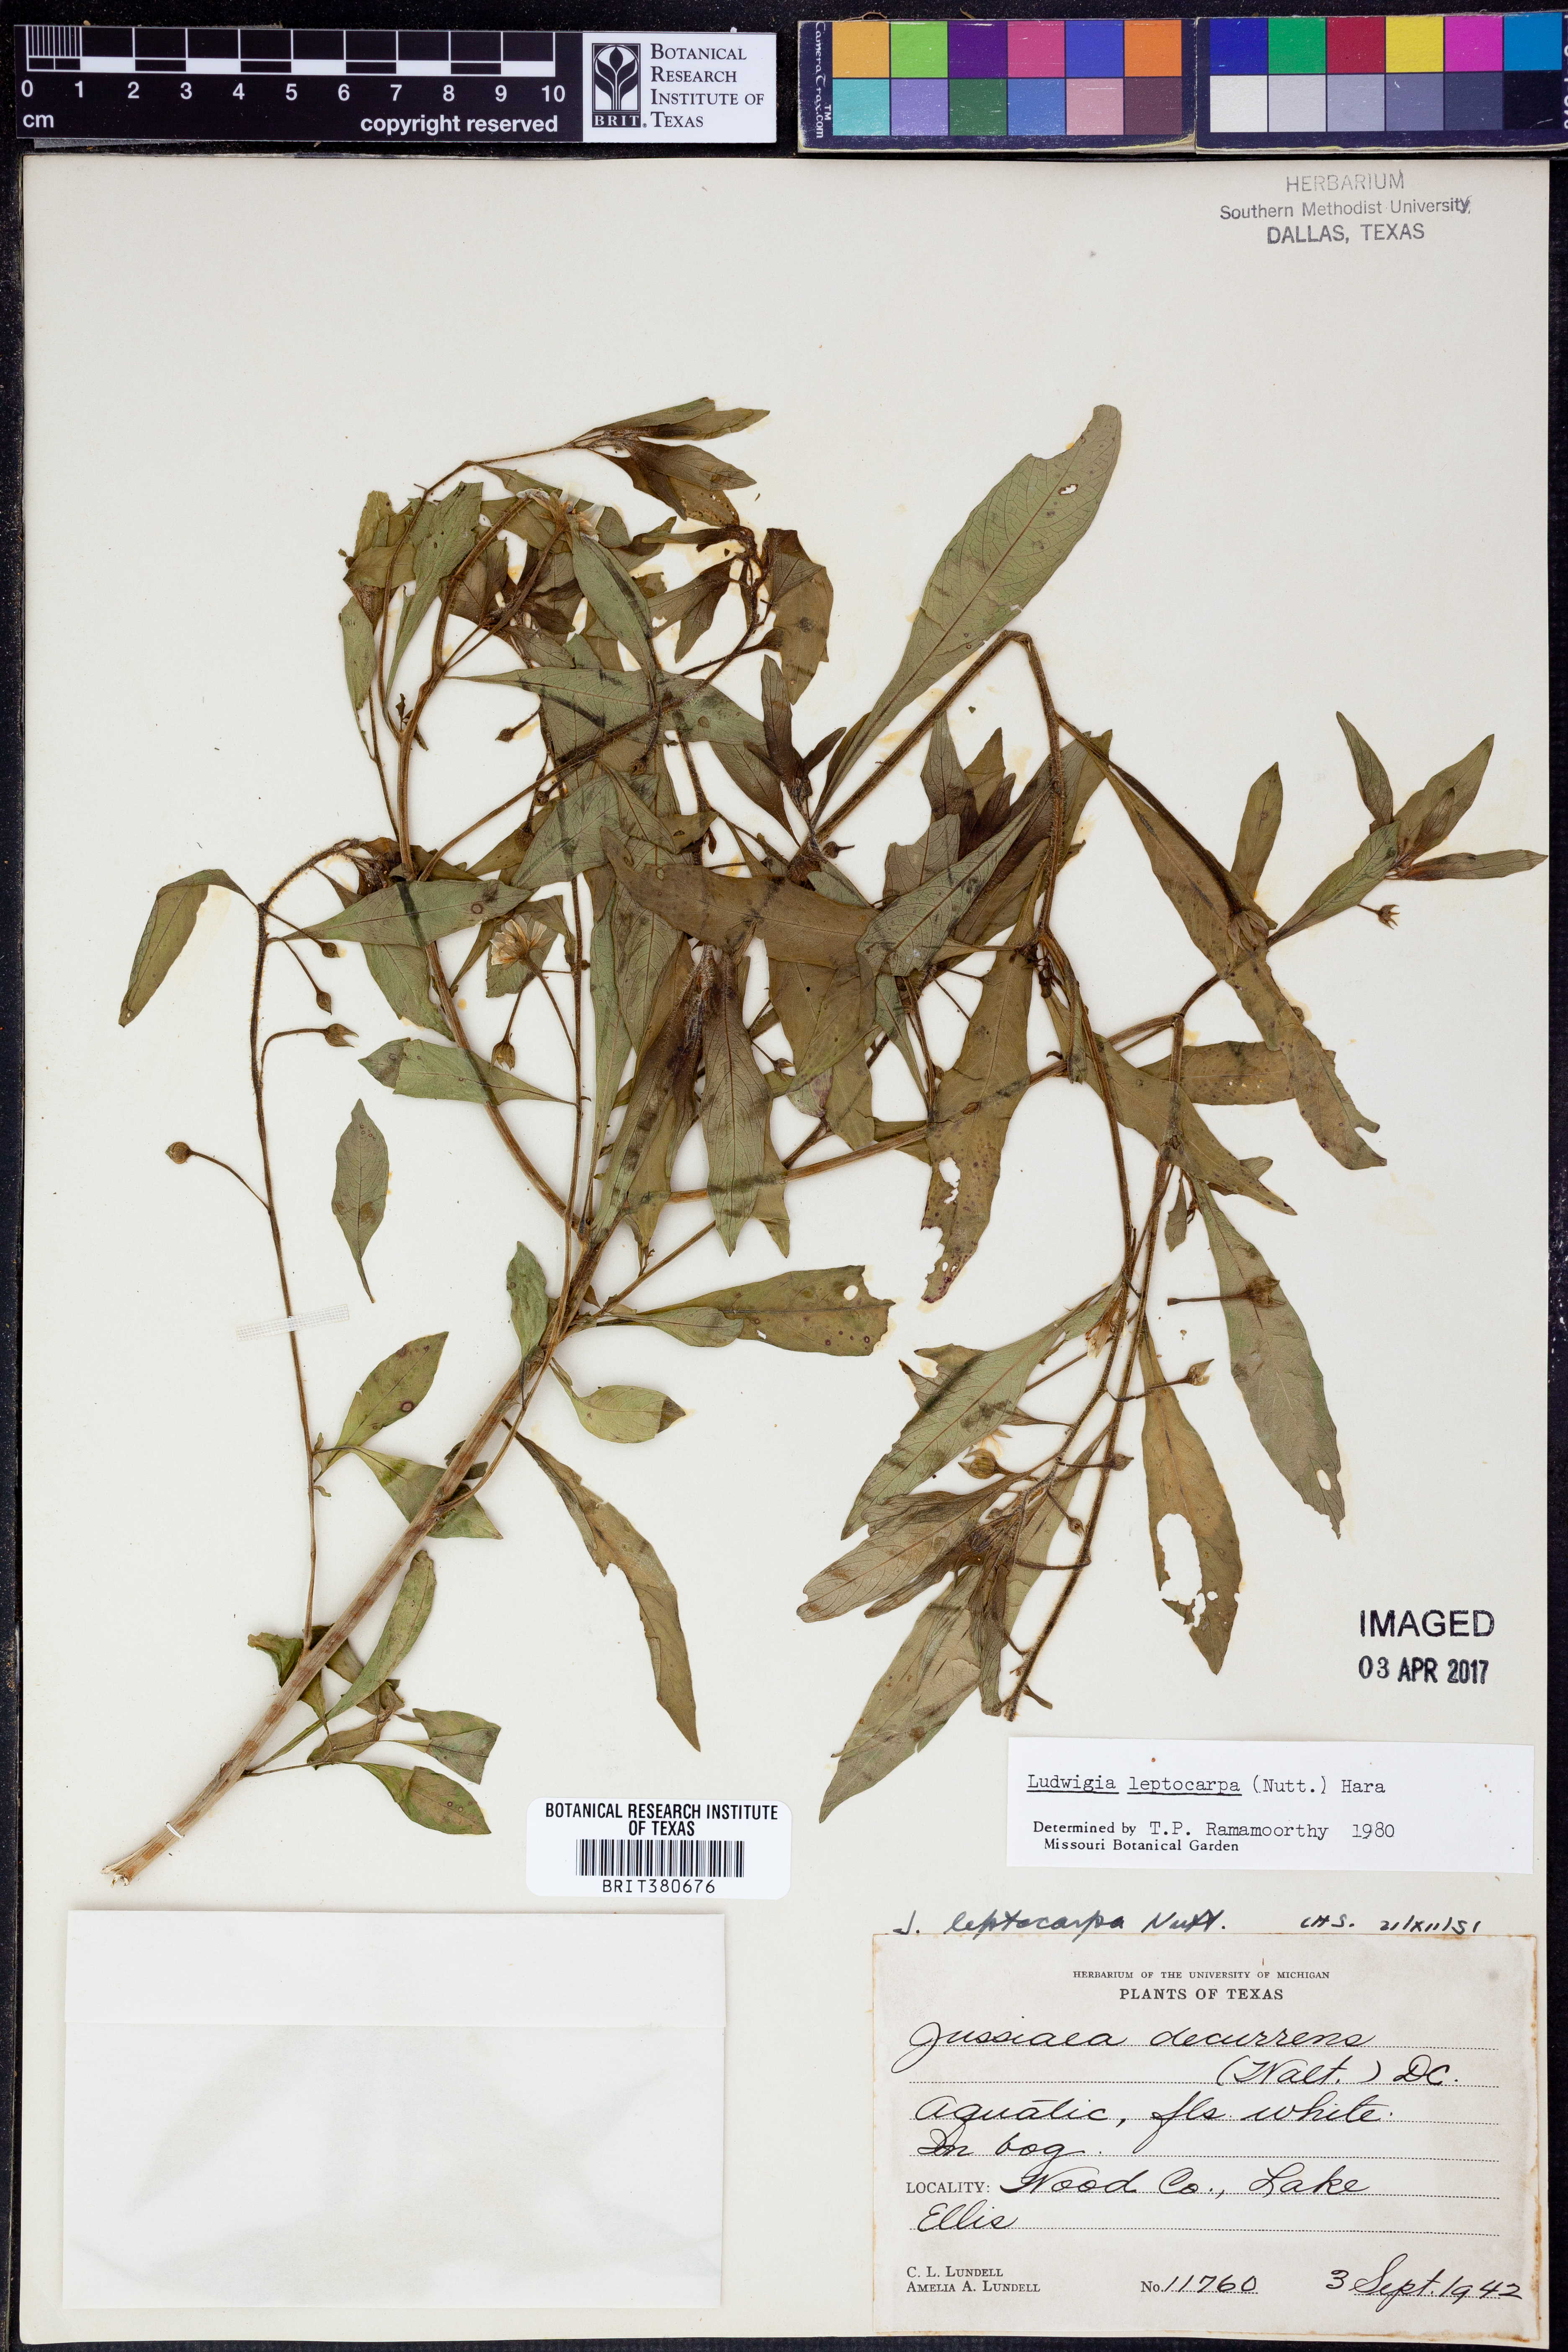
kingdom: Plantae
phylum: Tracheophyta
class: Magnoliopsida
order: Myrtales
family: Onagraceae
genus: Ludwigia
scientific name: Ludwigia leptocarpa
